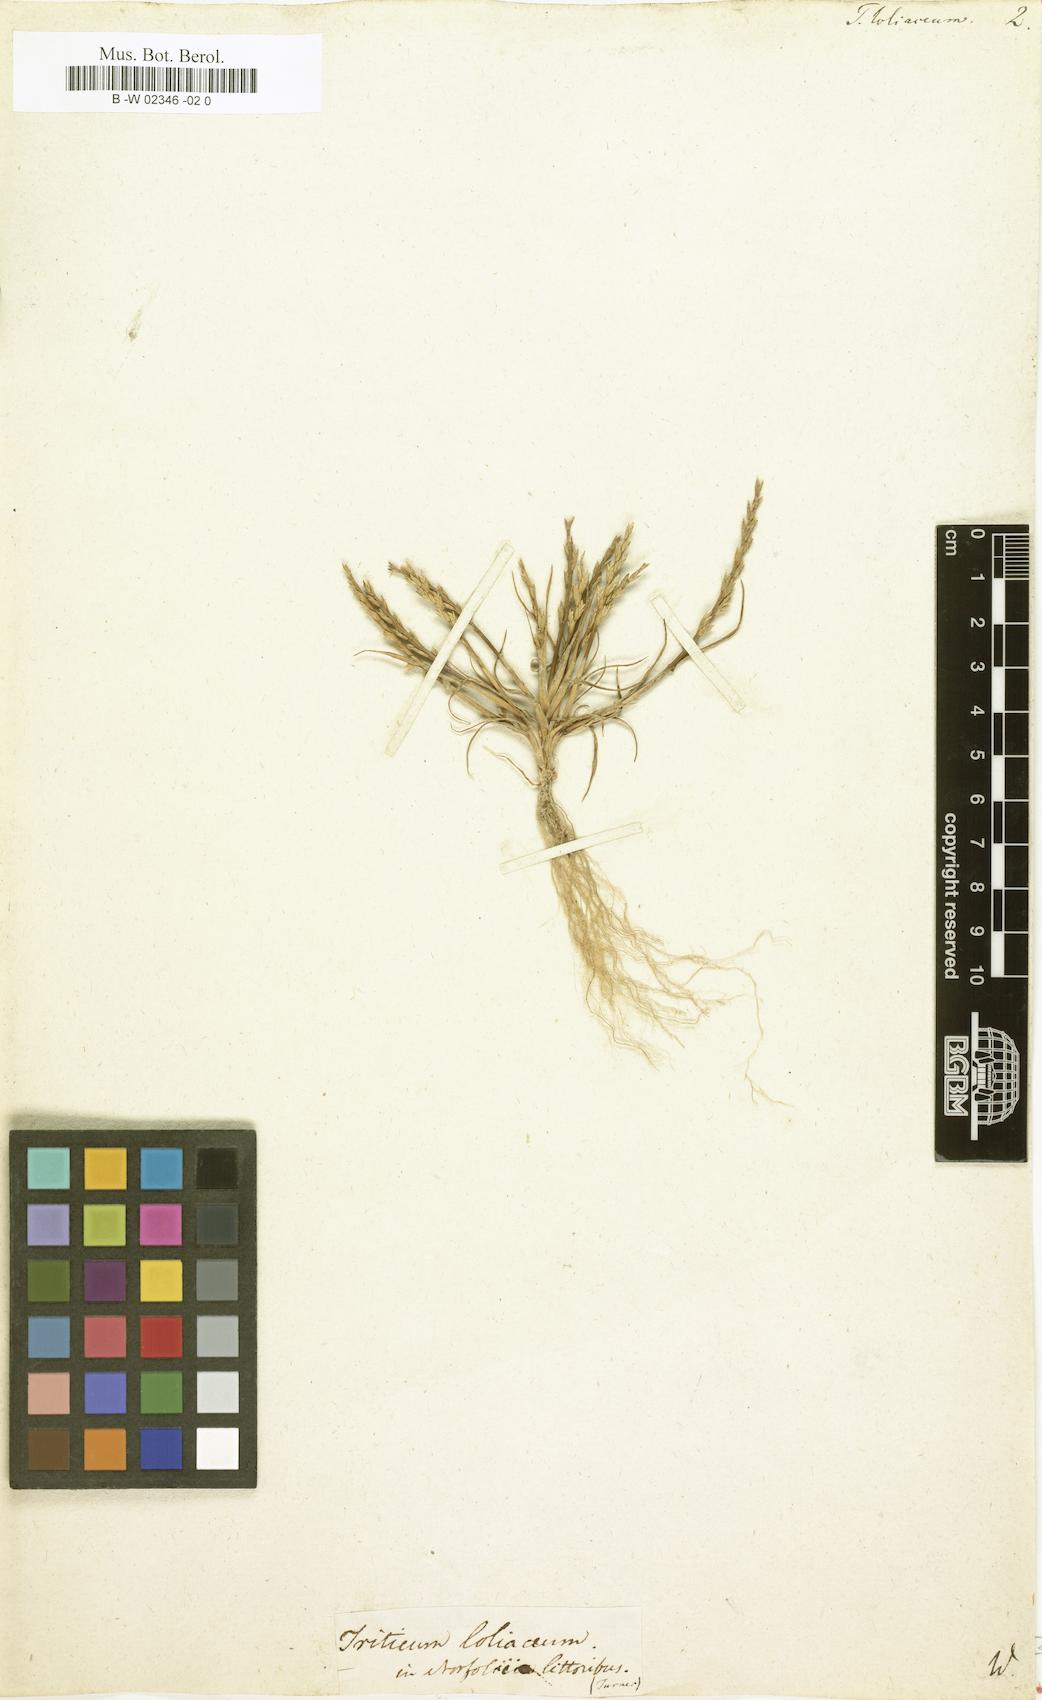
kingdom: Plantae
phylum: Tracheophyta
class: Liliopsida
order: Poales
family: Poaceae
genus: Catapodium
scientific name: Catapodium marinum
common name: Sea fern-grass
